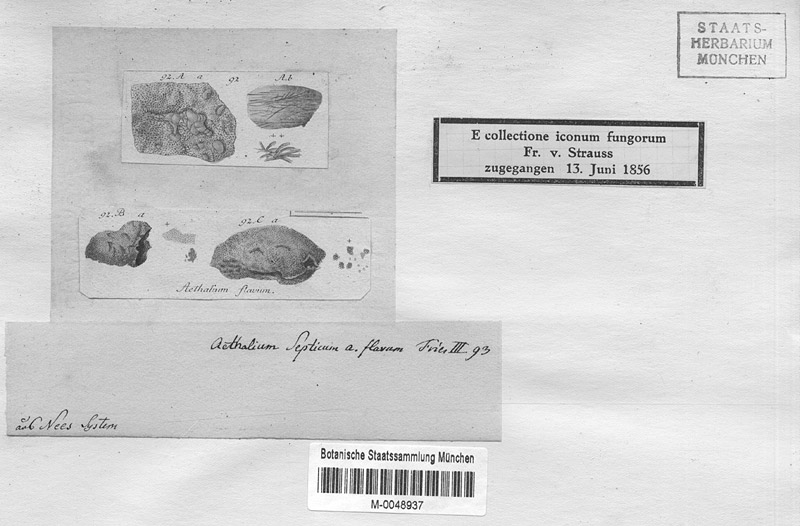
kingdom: Protozoa
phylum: Mycetozoa
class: Myxomycetes
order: Physarales
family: Physaraceae
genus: Fuligo
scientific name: Fuligo septica
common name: Dog vomit slime mold
